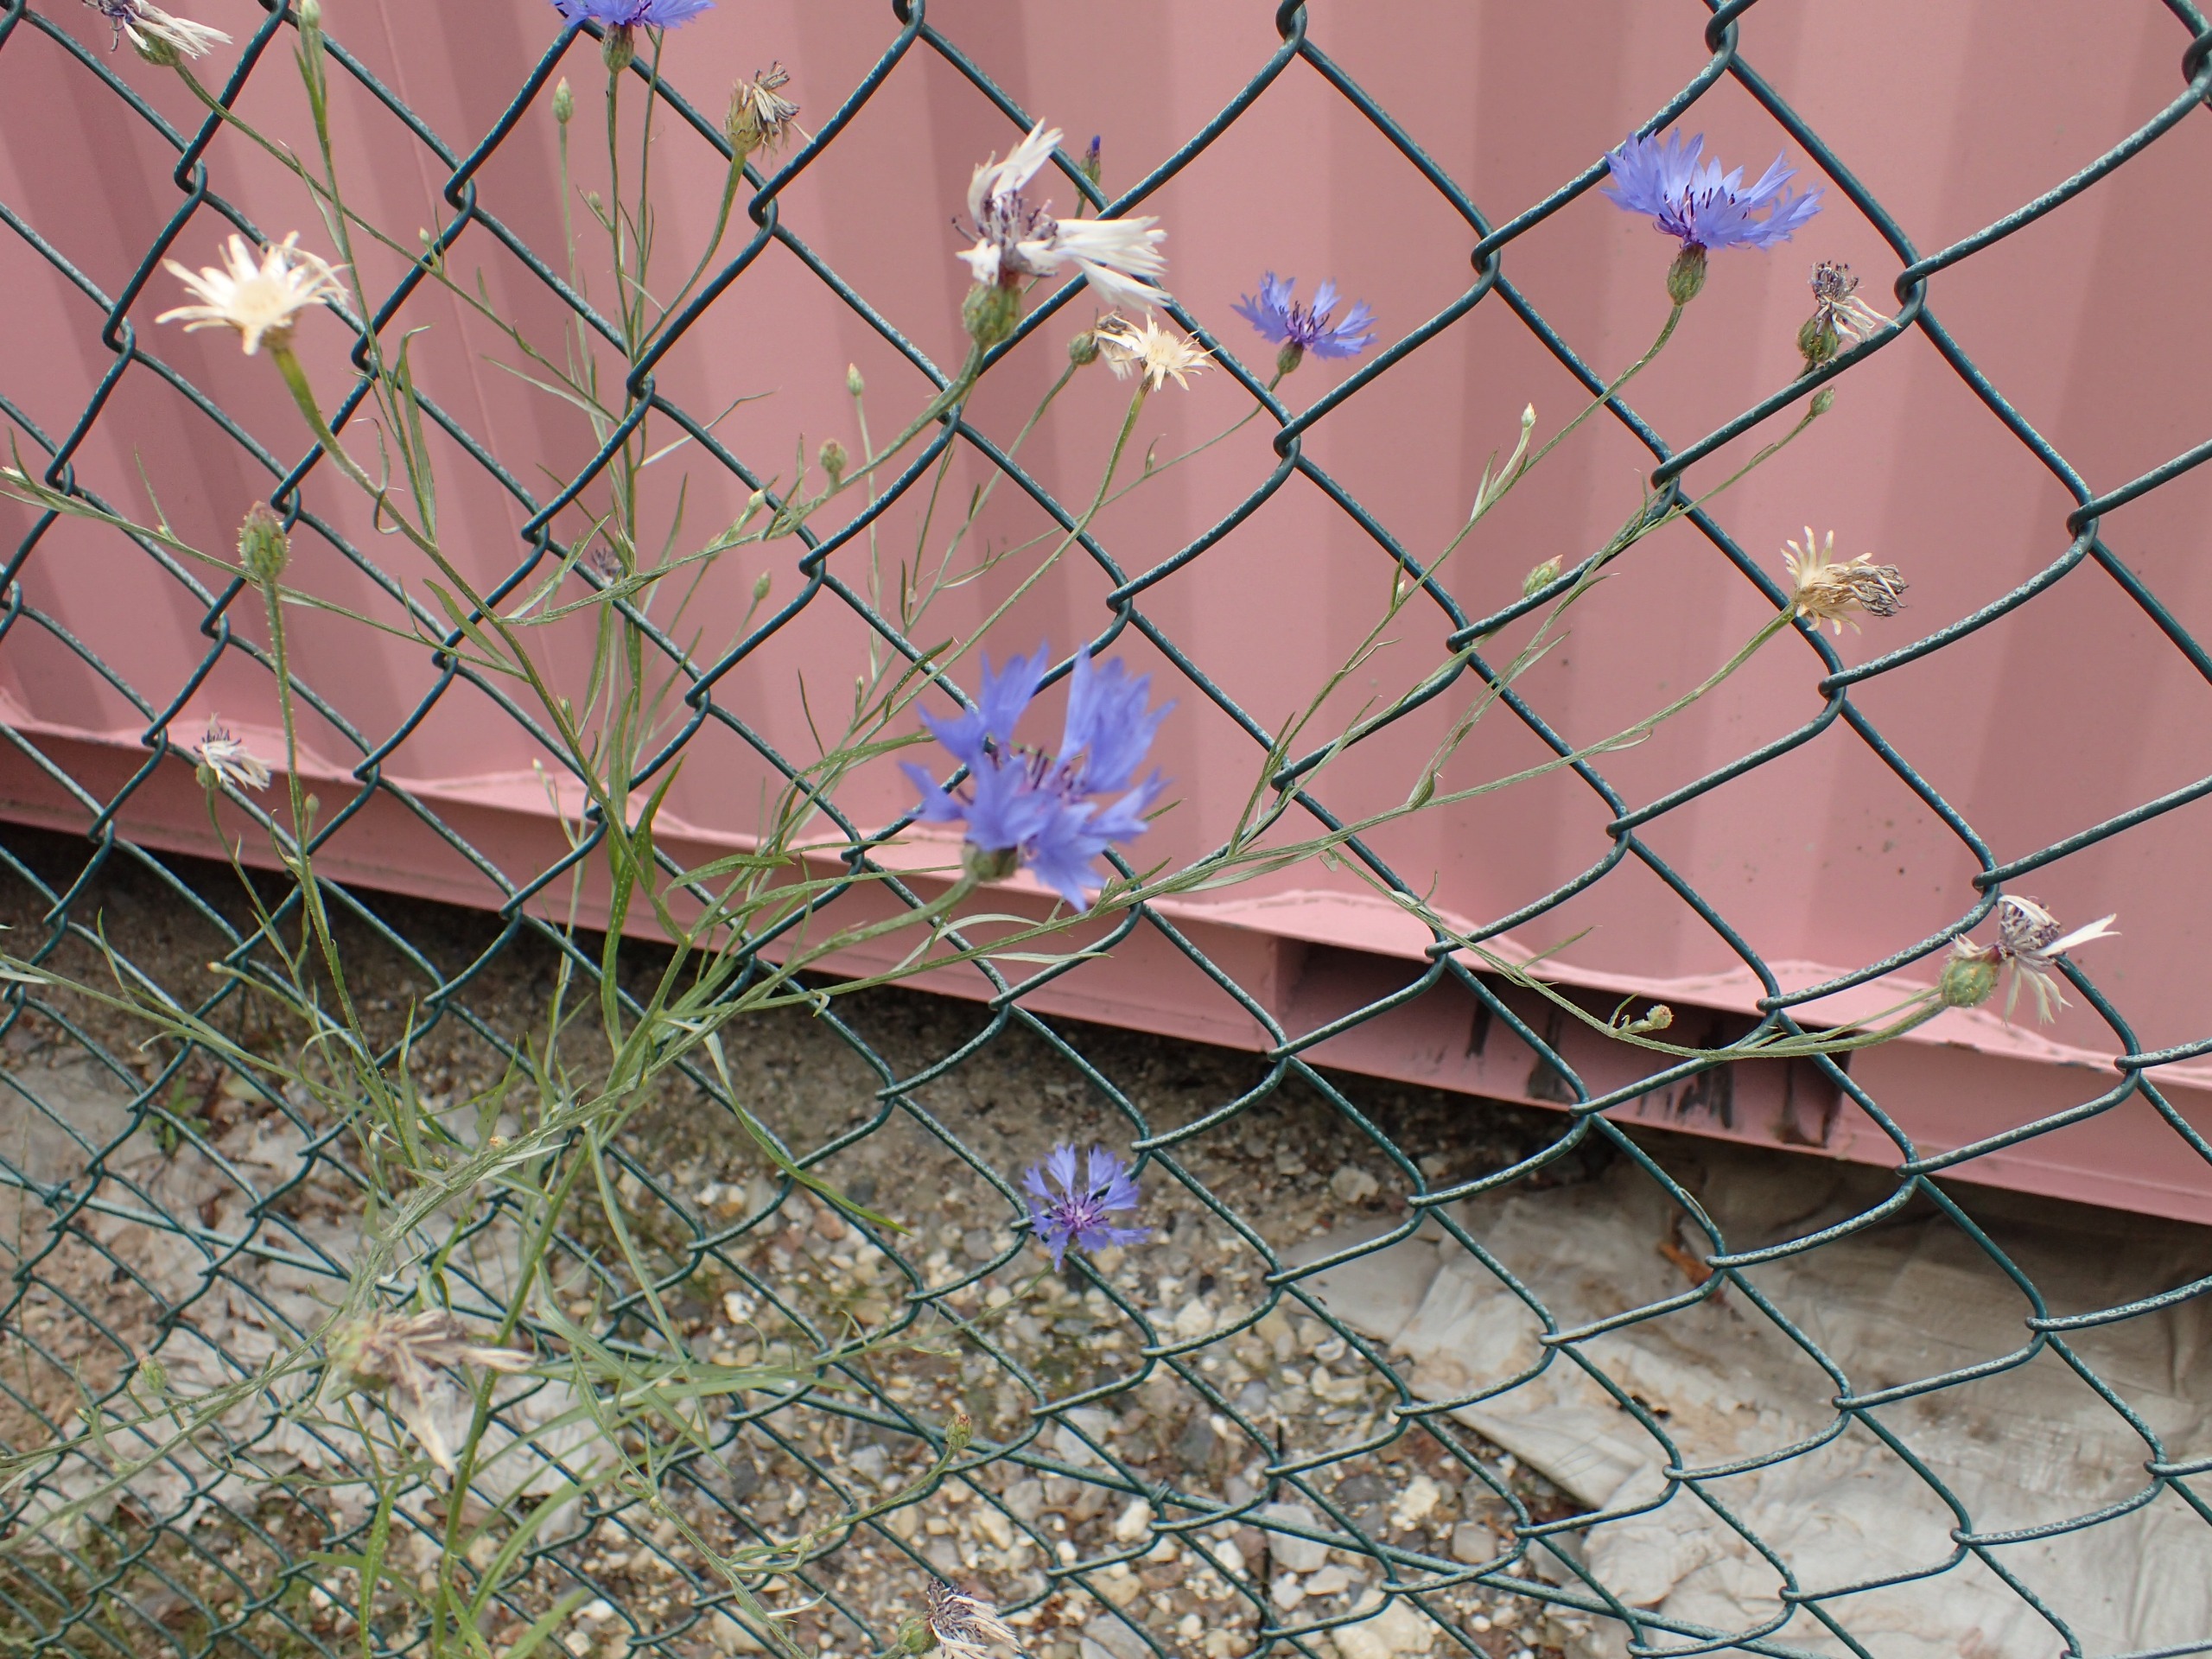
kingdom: Plantae
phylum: Tracheophyta
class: Magnoliopsida
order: Asterales
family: Asteraceae
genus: Centaurea
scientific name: Centaurea cyanus
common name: Kornblomst
